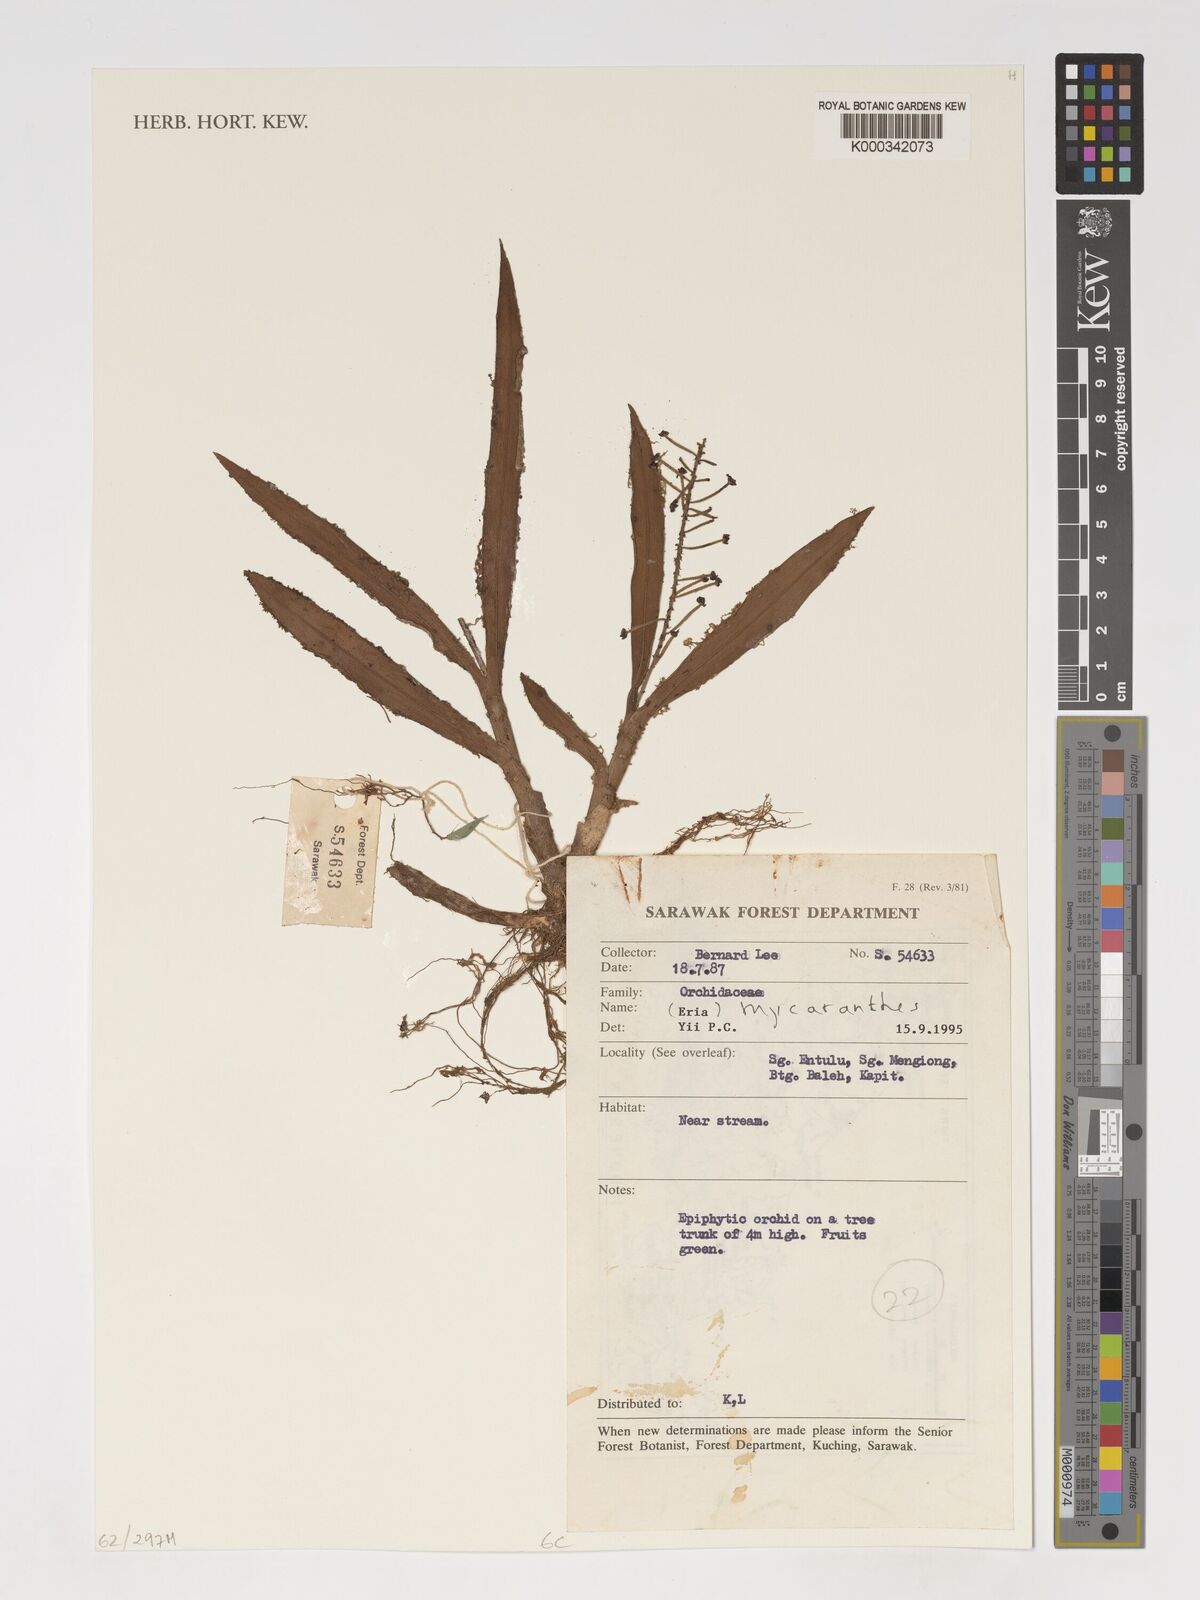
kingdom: Plantae
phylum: Tracheophyta
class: Liliopsida
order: Asparagales
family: Orchidaceae
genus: Mycaranthes
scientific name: Mycaranthes
